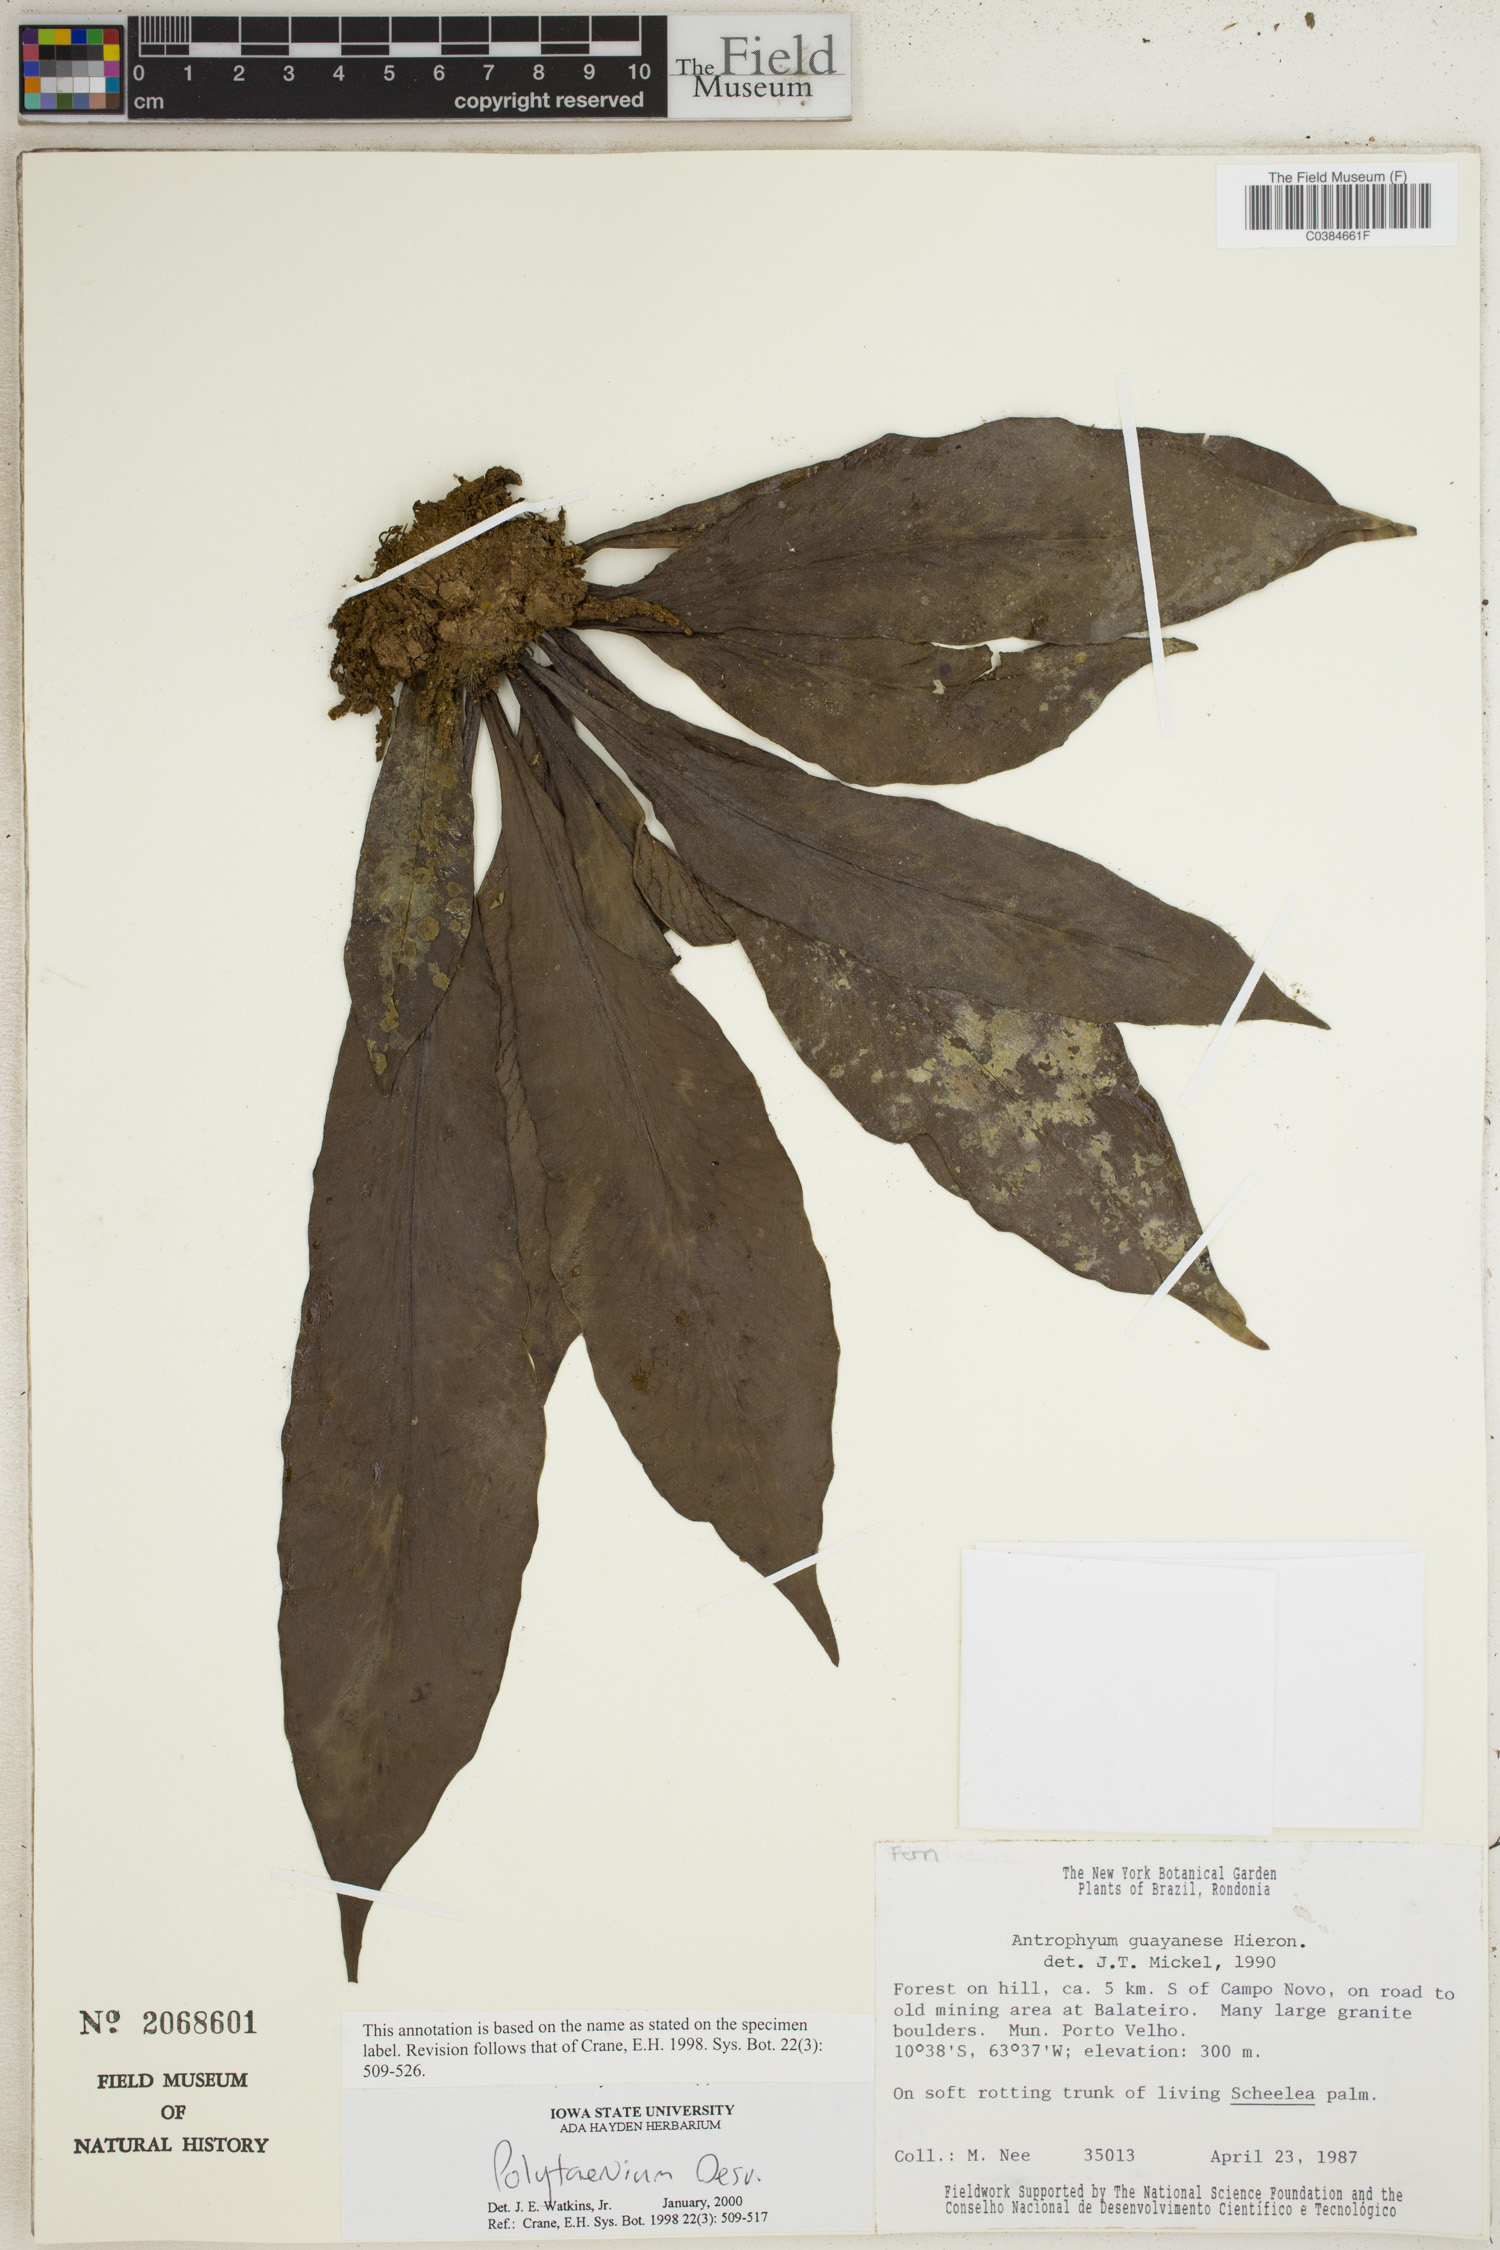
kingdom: Plantae
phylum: Tracheophyta
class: Polypodiopsida
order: Polypodiales
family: Pteridaceae
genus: Polytaenium
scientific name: Polytaenium
